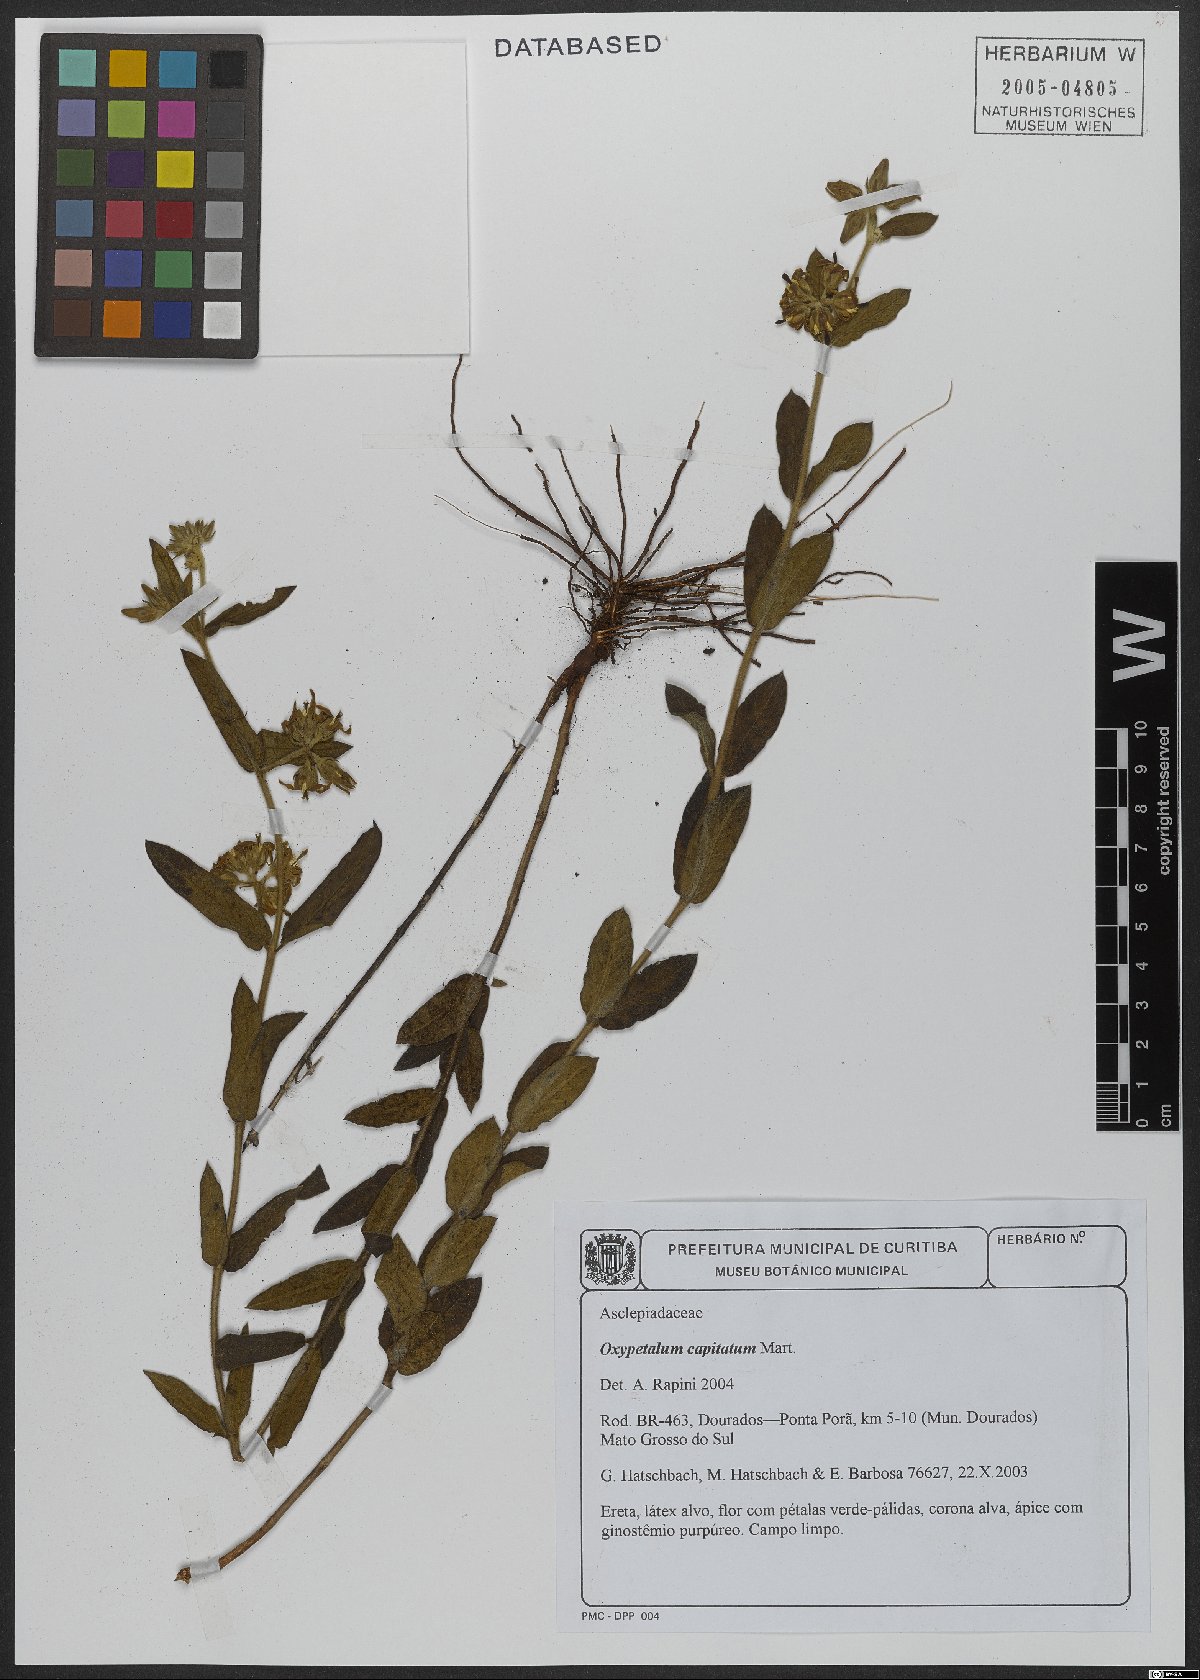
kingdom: Plantae
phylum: Tracheophyta
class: Magnoliopsida
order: Gentianales
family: Apocynaceae
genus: Oxypetalum
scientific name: Oxypetalum capitatum
